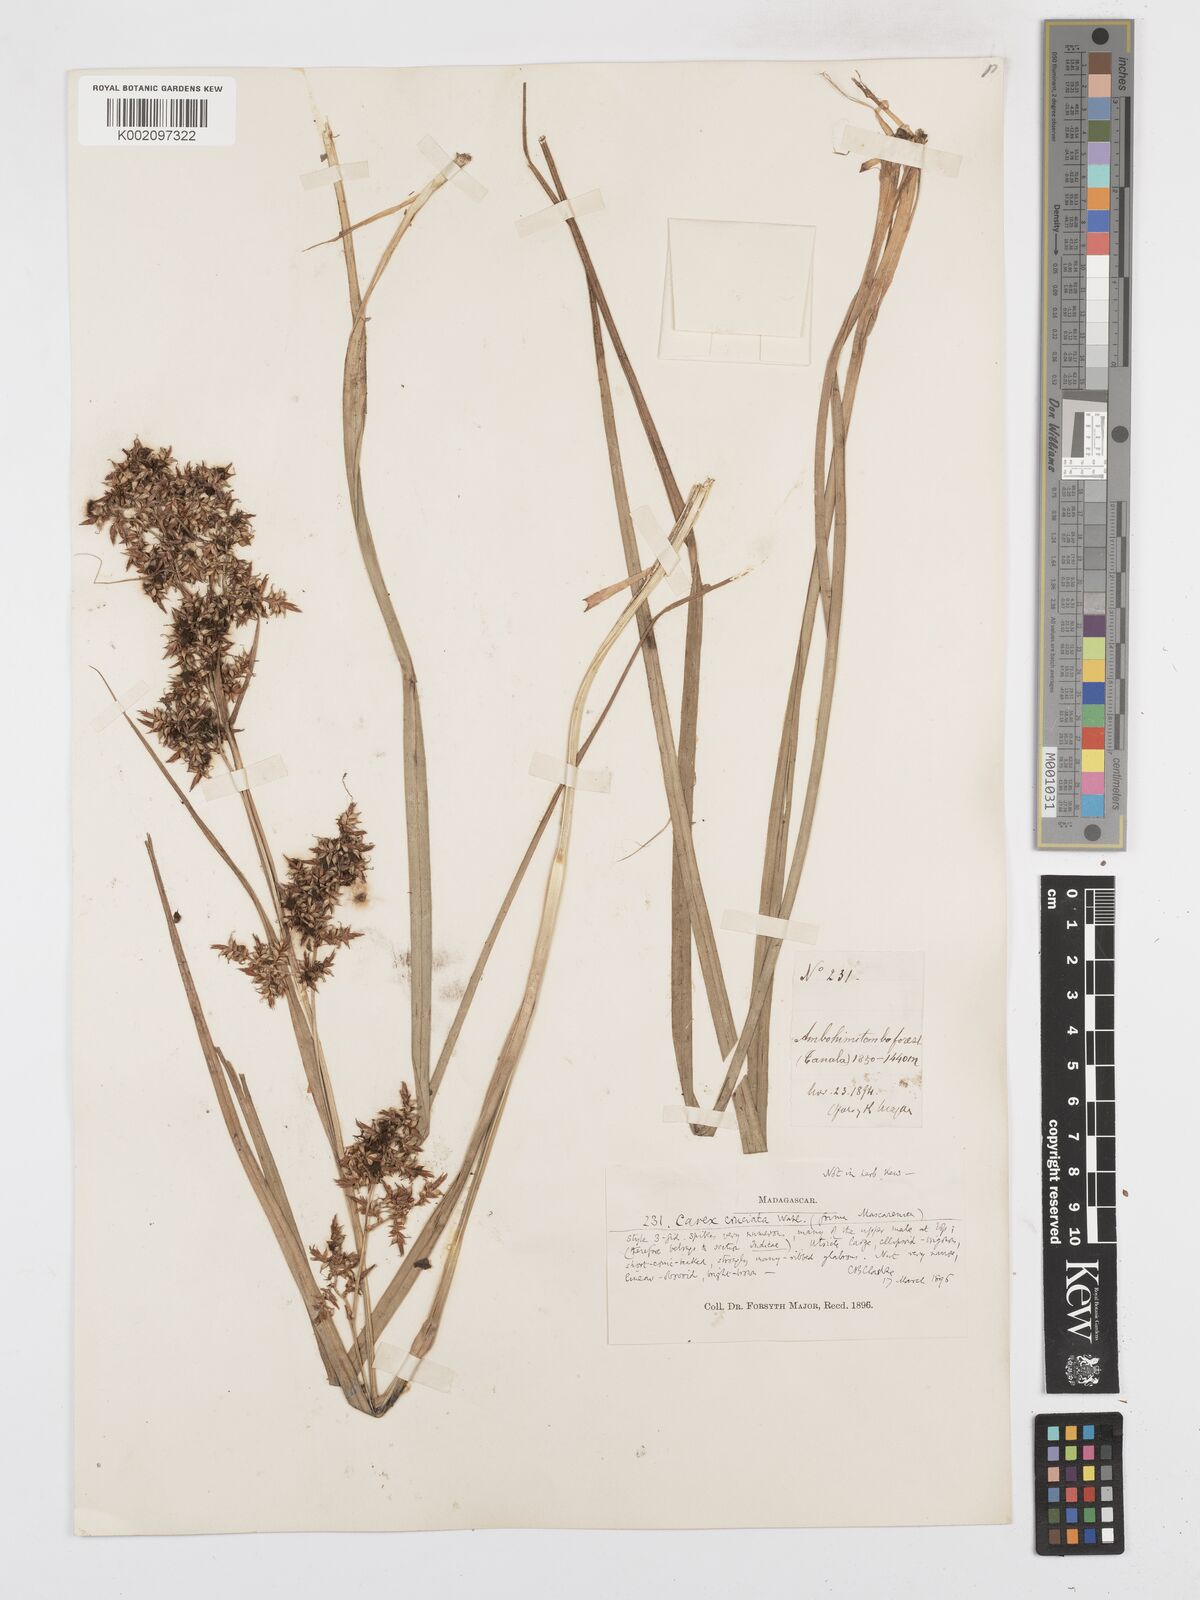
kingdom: Plantae
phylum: Tracheophyta
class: Liliopsida
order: Poales
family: Cyperaceae
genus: Carex
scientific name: Carex pyramidalis
